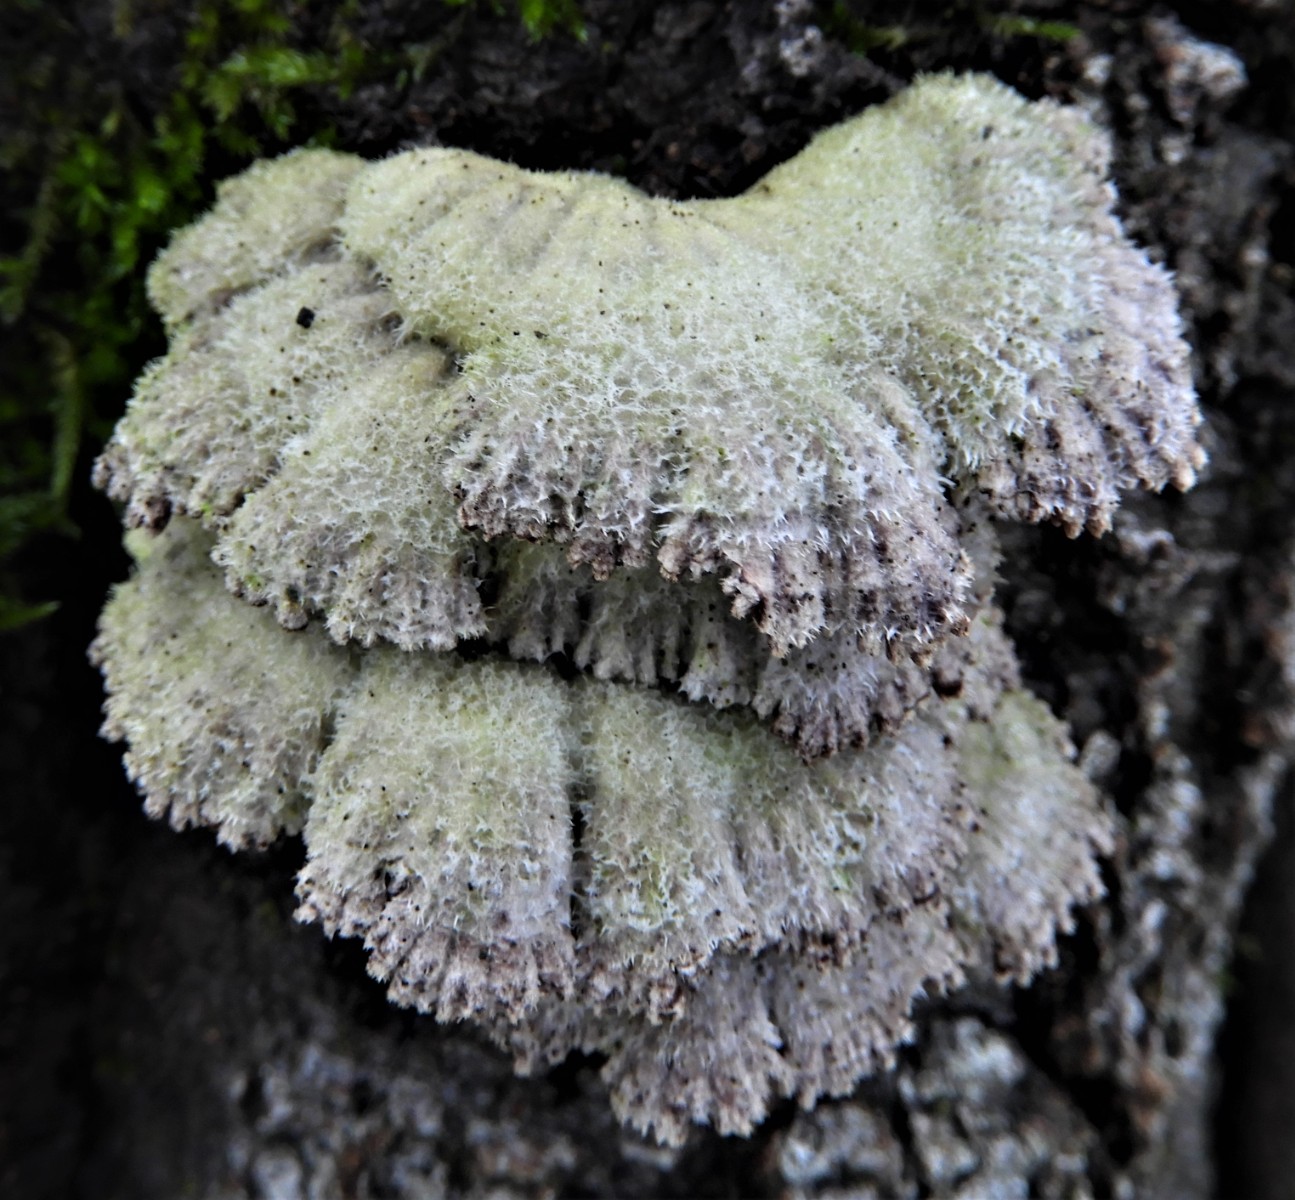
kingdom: Fungi
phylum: Basidiomycota
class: Agaricomycetes
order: Agaricales
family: Schizophyllaceae
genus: Schizophyllum
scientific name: Schizophyllum commune
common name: kløvblad
